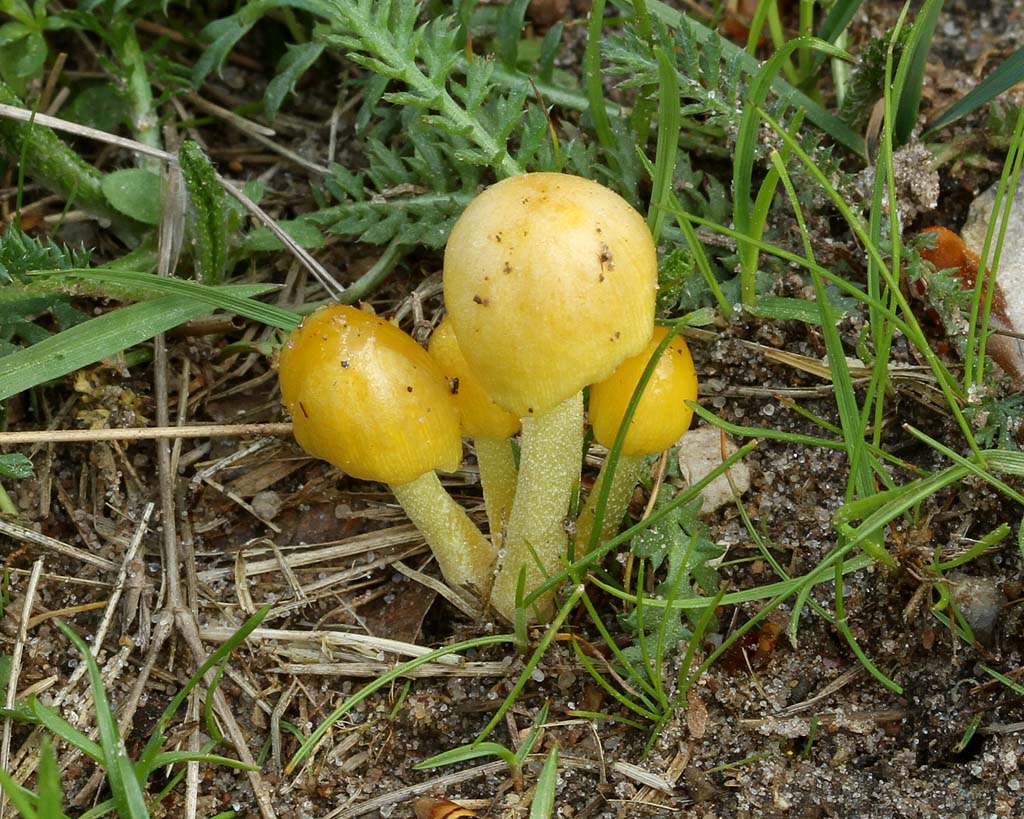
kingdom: Fungi
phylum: Basidiomycota
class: Agaricomycetes
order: Agaricales
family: Bolbitiaceae
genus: Bolbitius
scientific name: Bolbitius titubans
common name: almindelig gulhat
